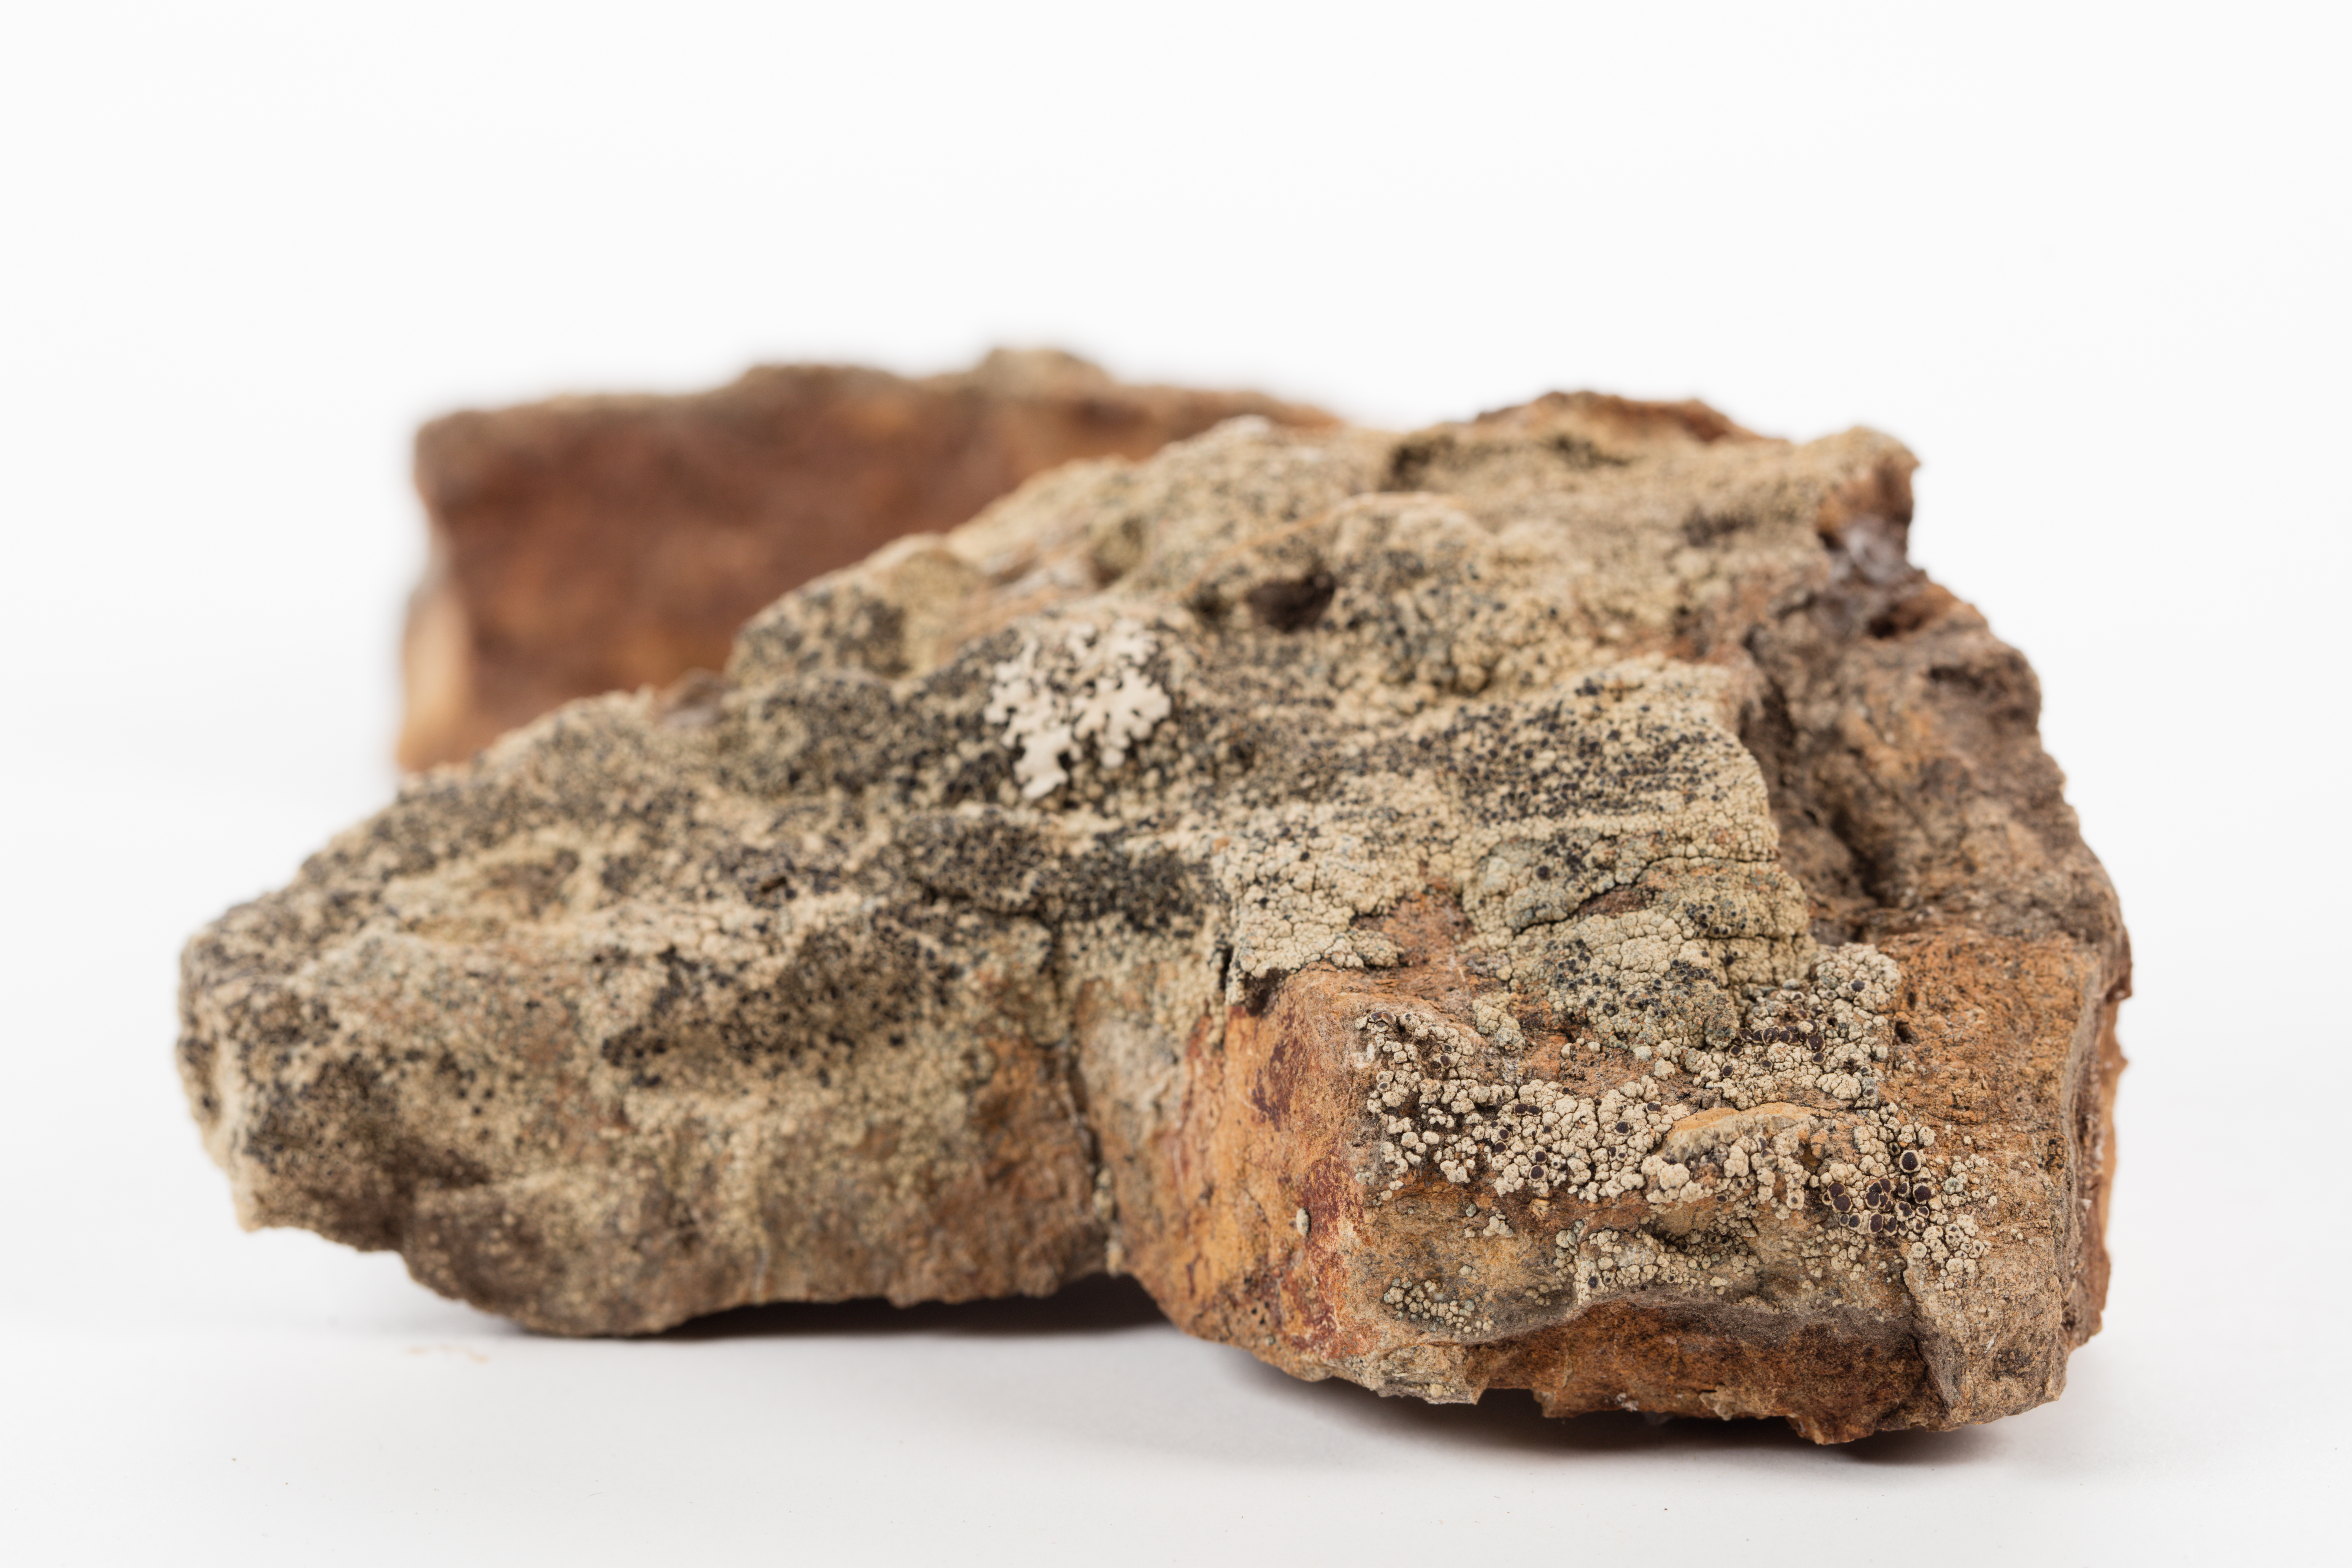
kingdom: Fungi
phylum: Ascomycota
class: Lecanoromycetes
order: Lecanorales
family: Tephromelataceae
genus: Tephromela
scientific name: Tephromela atra
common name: Black shields
